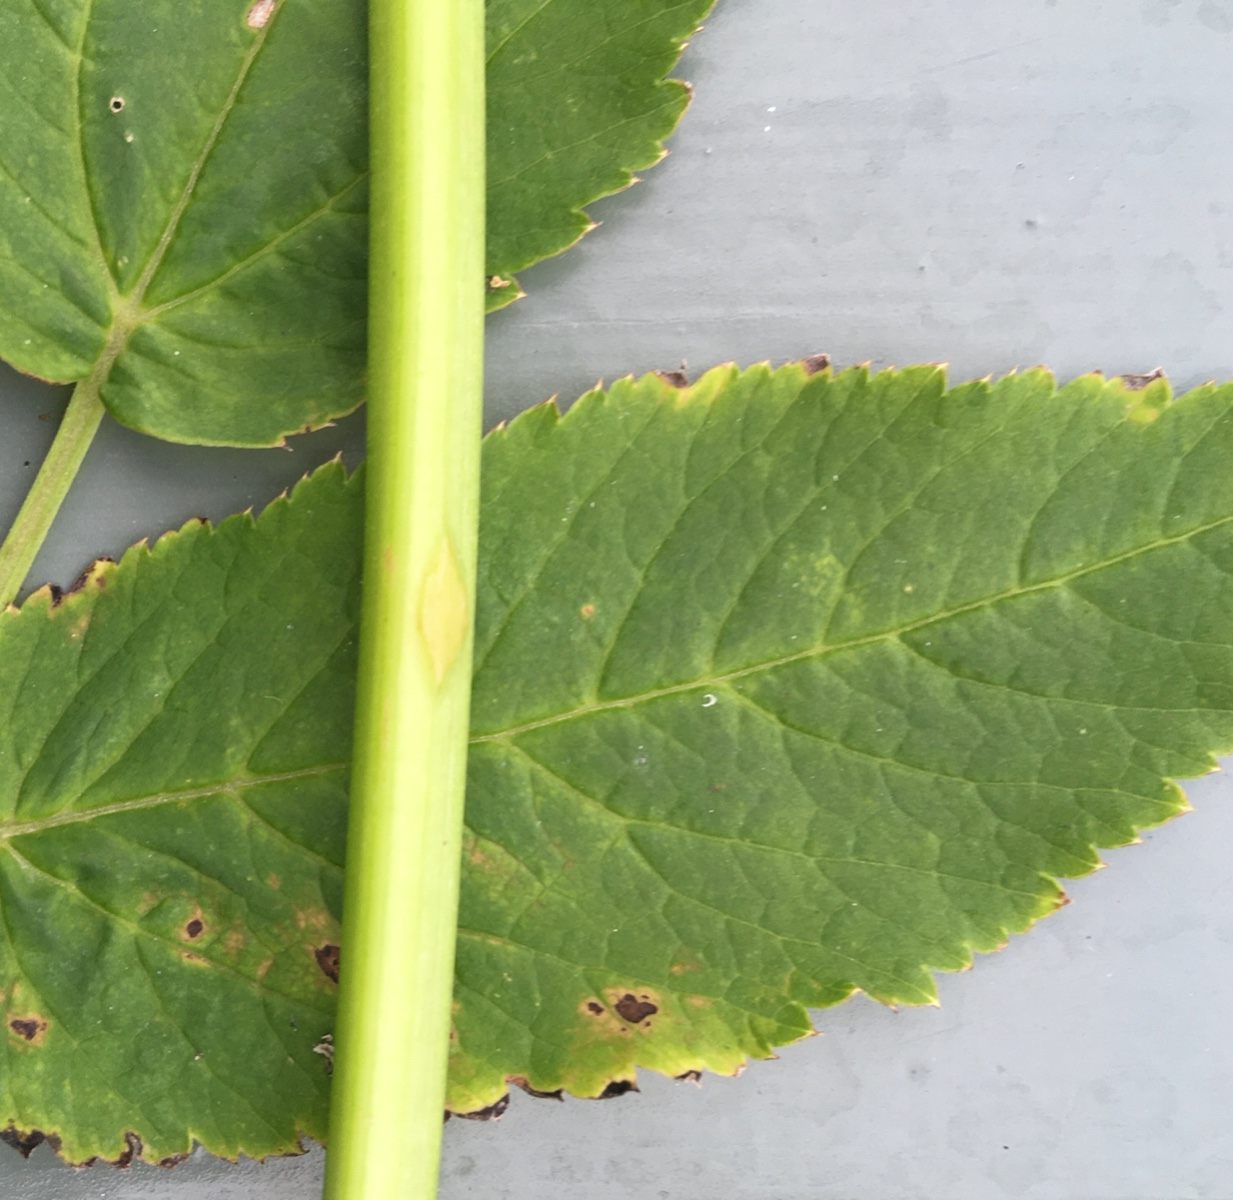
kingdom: Fungi
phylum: Ascomycota
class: Taphrinomycetes
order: Taphrinales
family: Taphrinaceae
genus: Protomyces
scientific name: Protomyces macrosporus
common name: skvalderkål-vablesæk
